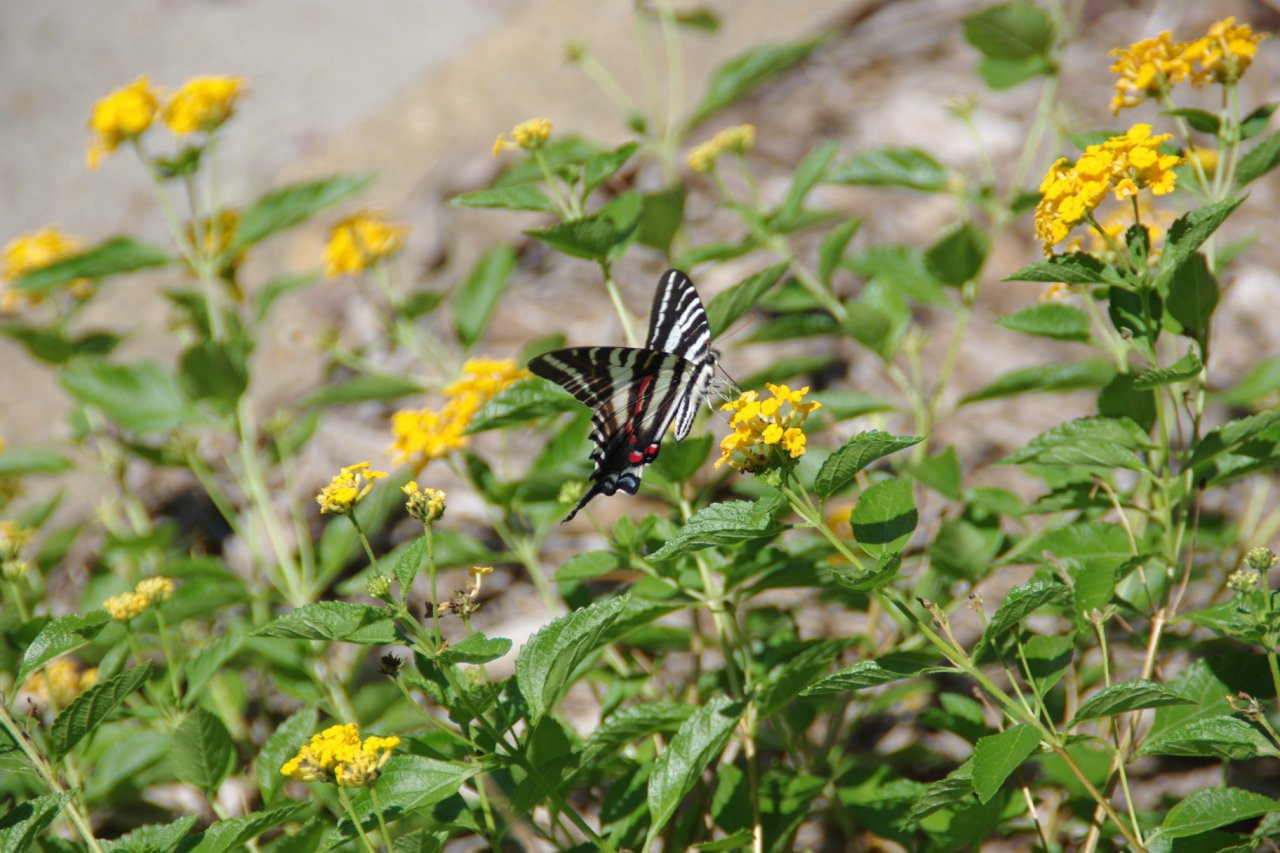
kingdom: Animalia
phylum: Arthropoda
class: Insecta
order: Lepidoptera
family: Papilionidae
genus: Protographium
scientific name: Protographium marcellus
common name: Zebra Swallowtail
